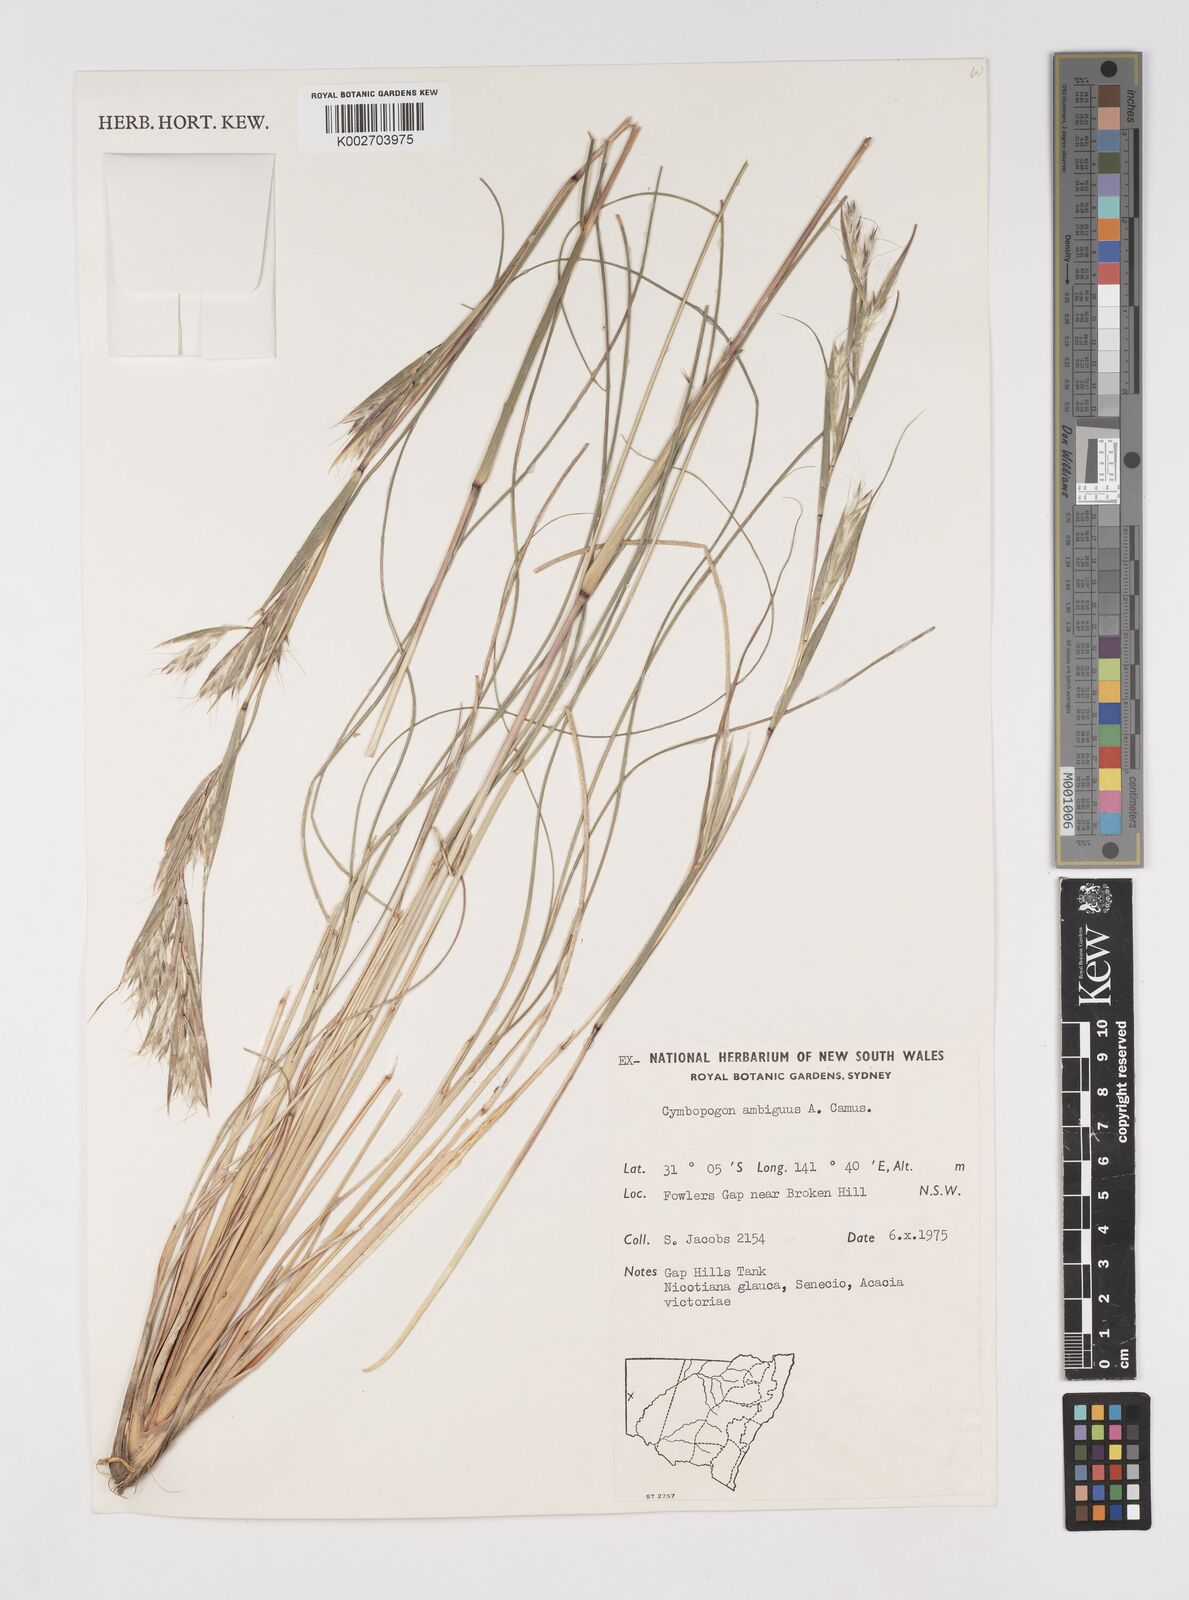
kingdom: Plantae
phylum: Tracheophyta
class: Liliopsida
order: Poales
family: Poaceae
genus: Cymbopogon
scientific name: Cymbopogon ambiguus
